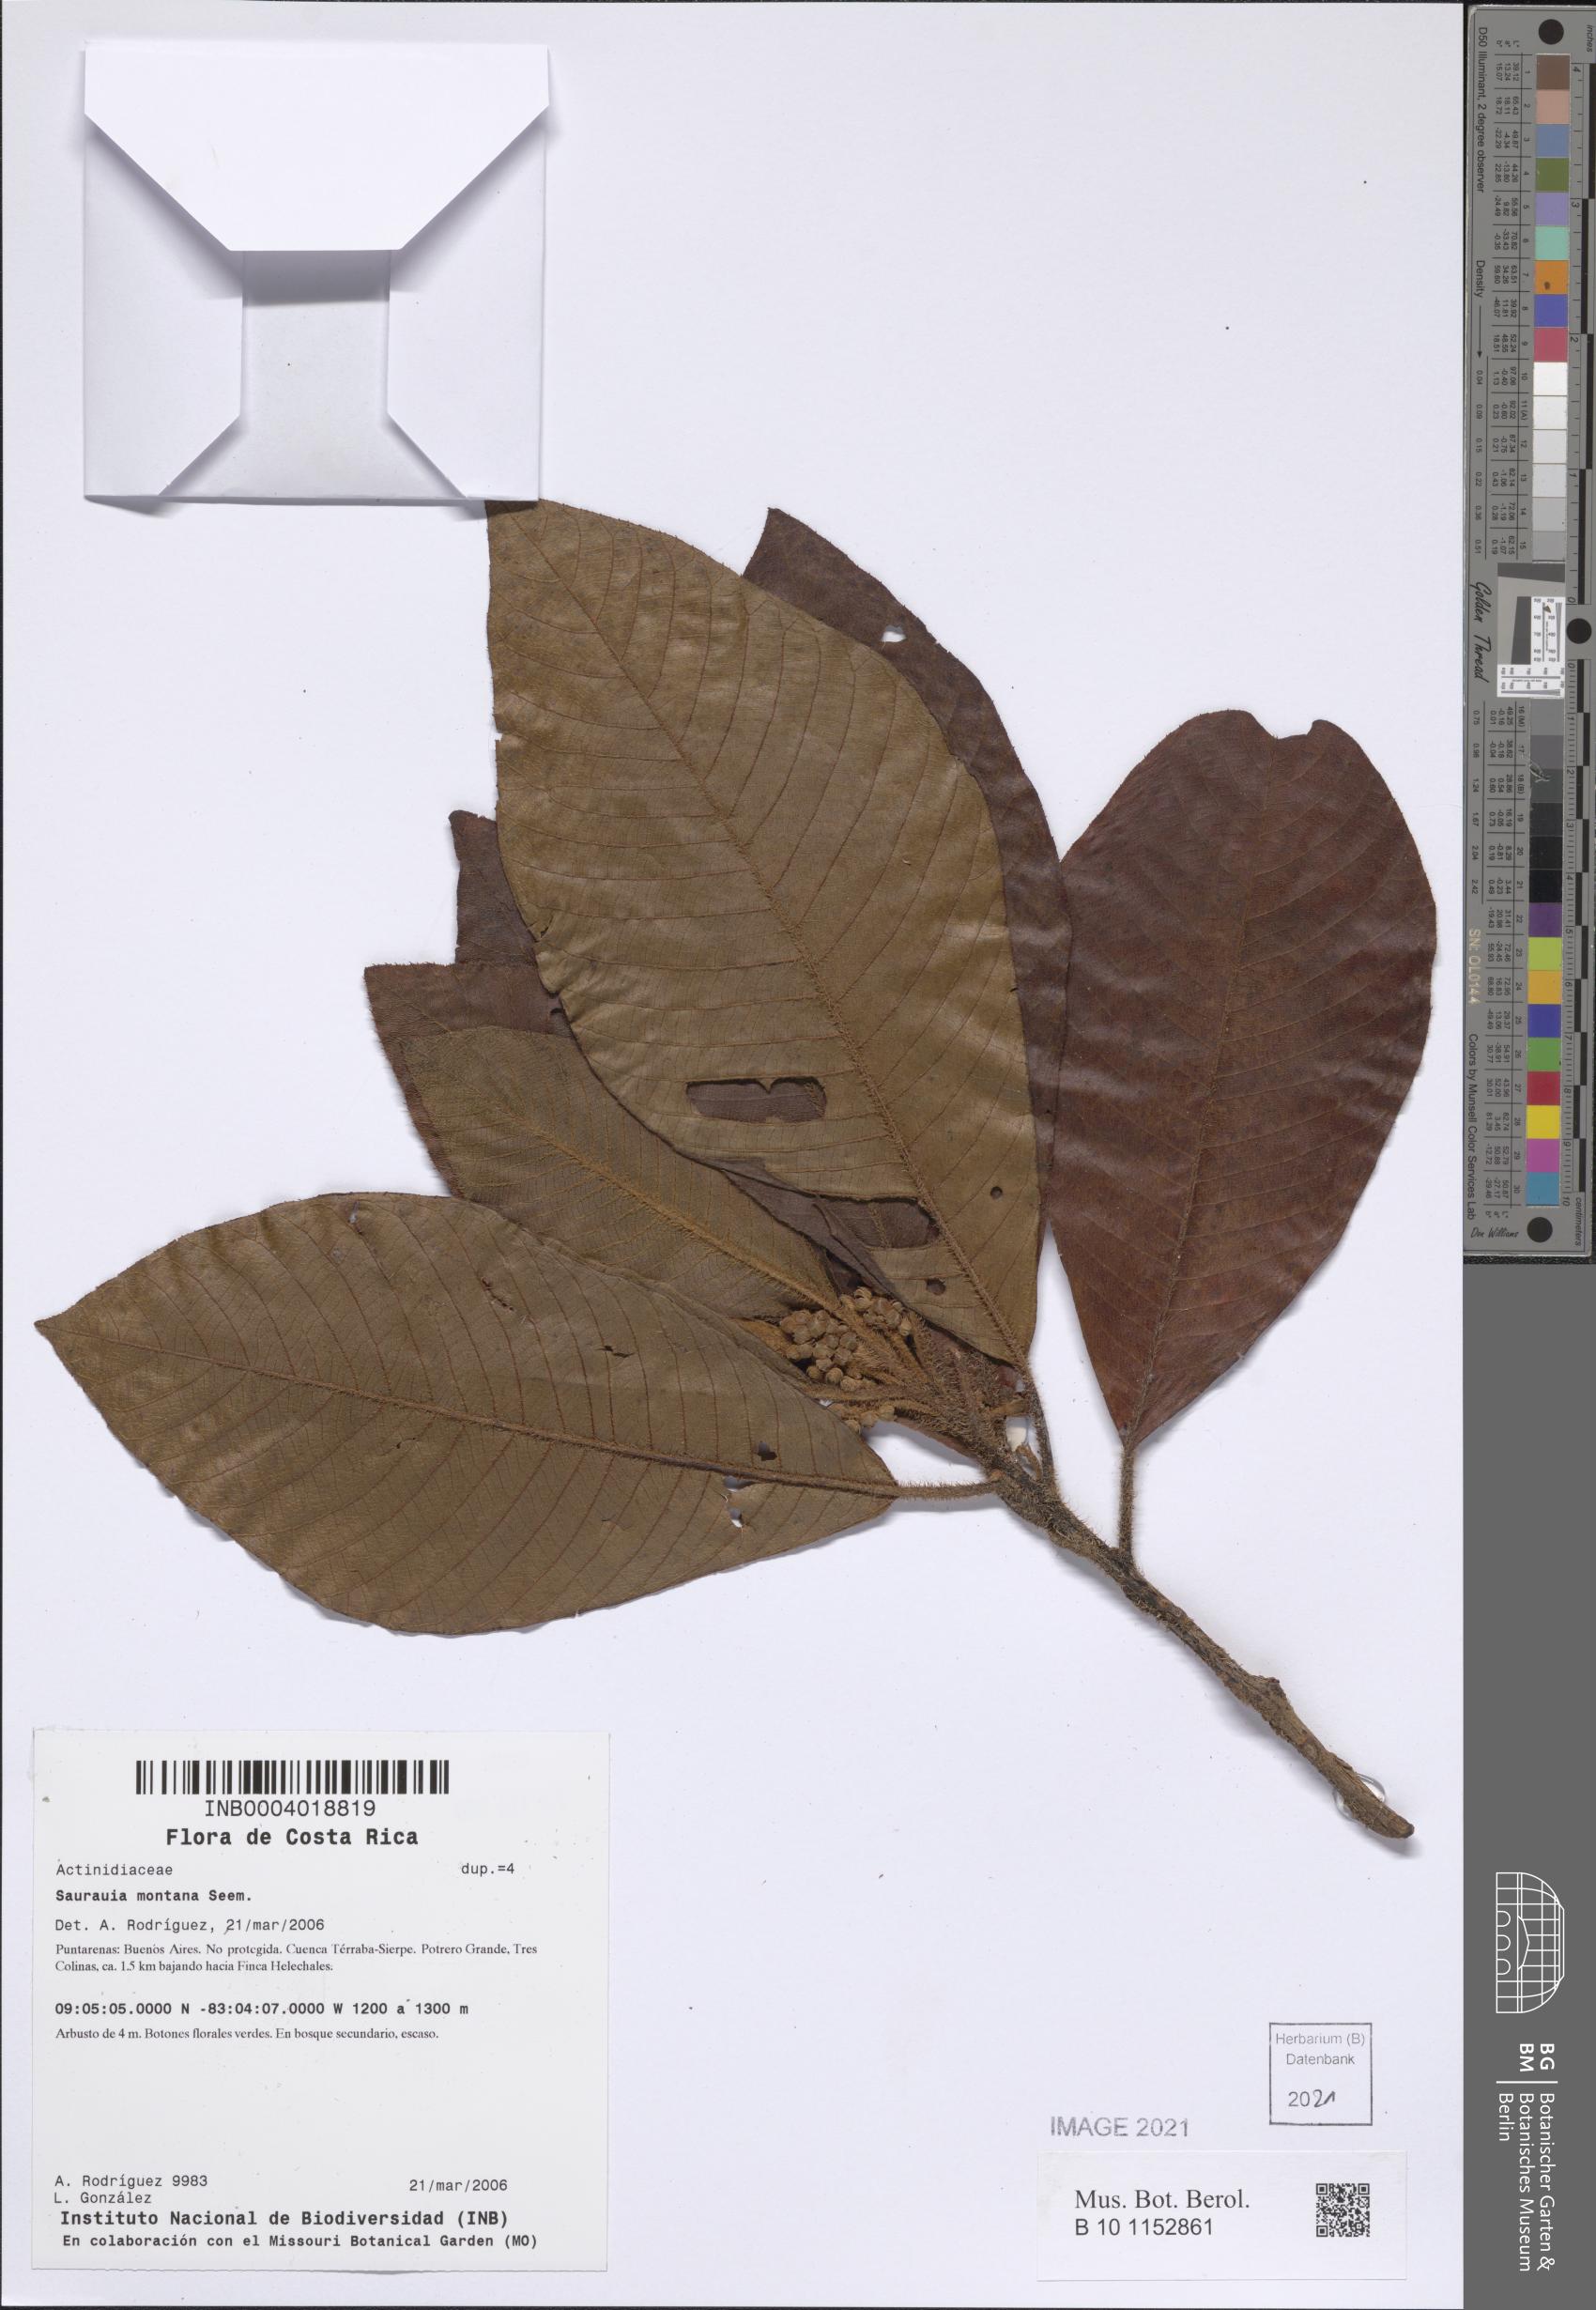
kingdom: Plantae
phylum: Tracheophyta
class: Magnoliopsida
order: Ericales
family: Actinidiaceae
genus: Saurauia
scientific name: Saurauia montana
